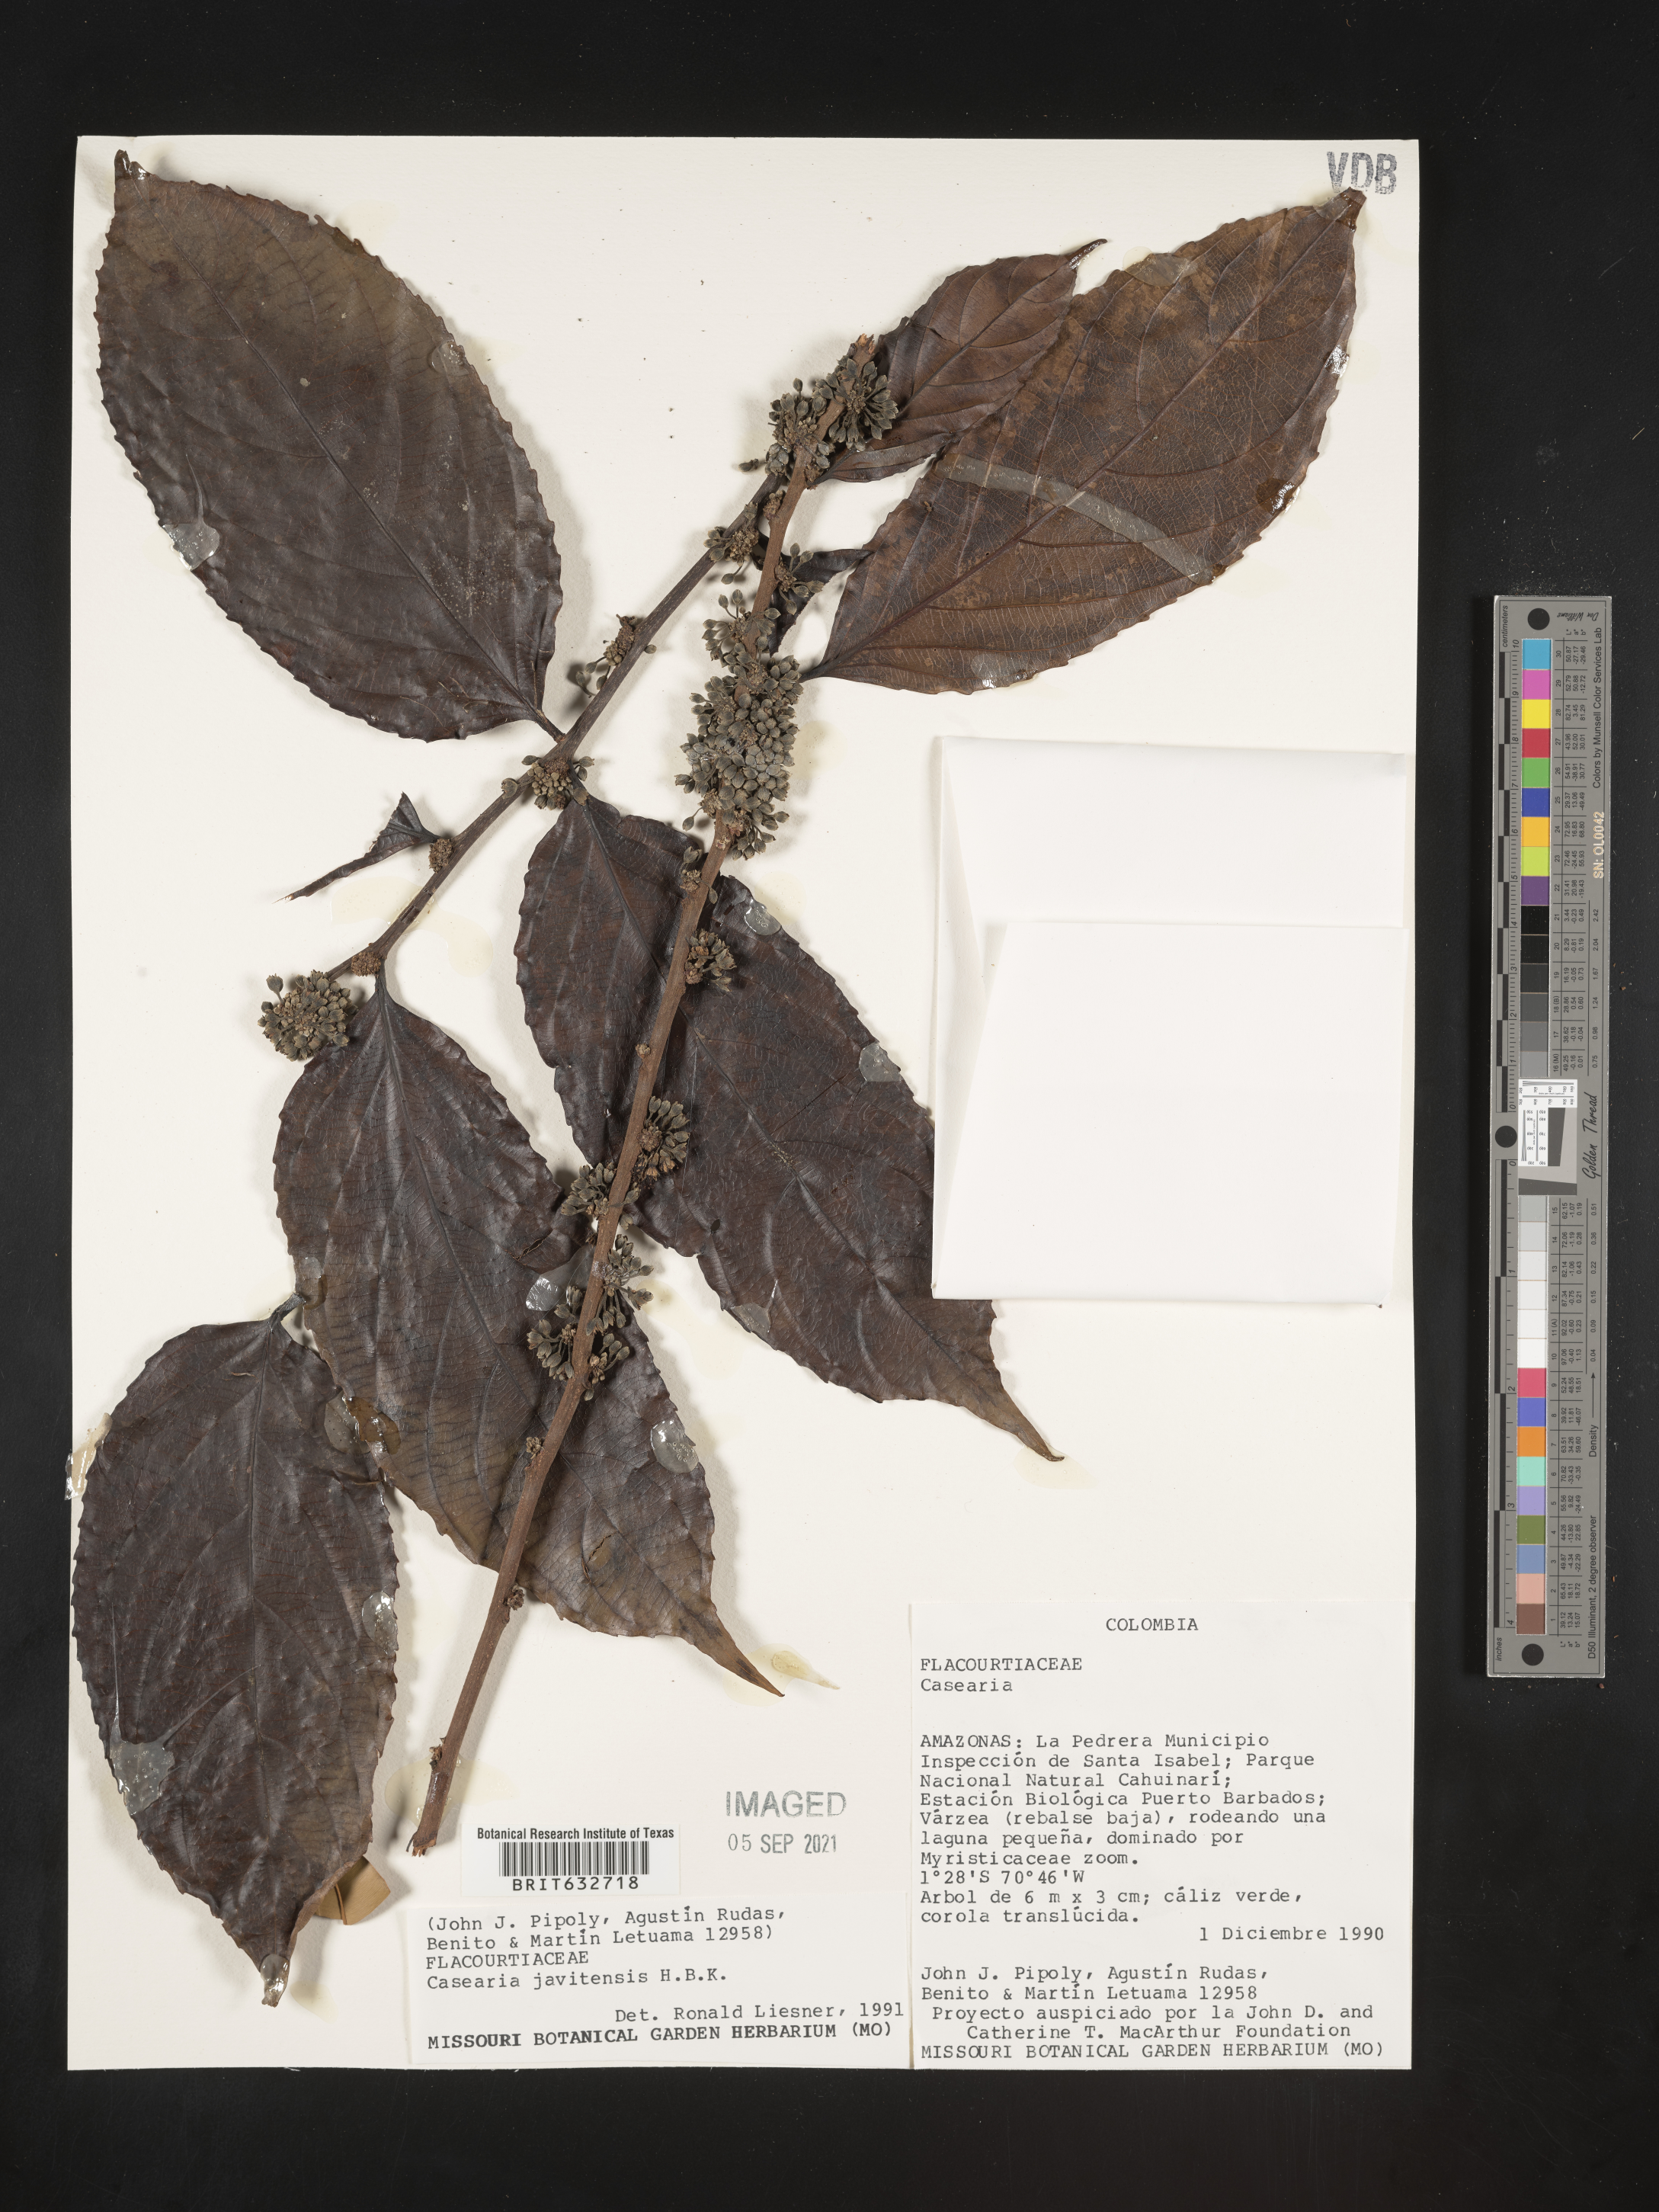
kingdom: Plantae
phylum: Tracheophyta
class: Magnoliopsida
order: Malpighiales
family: Salicaceae
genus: Casearia
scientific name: Casearia
